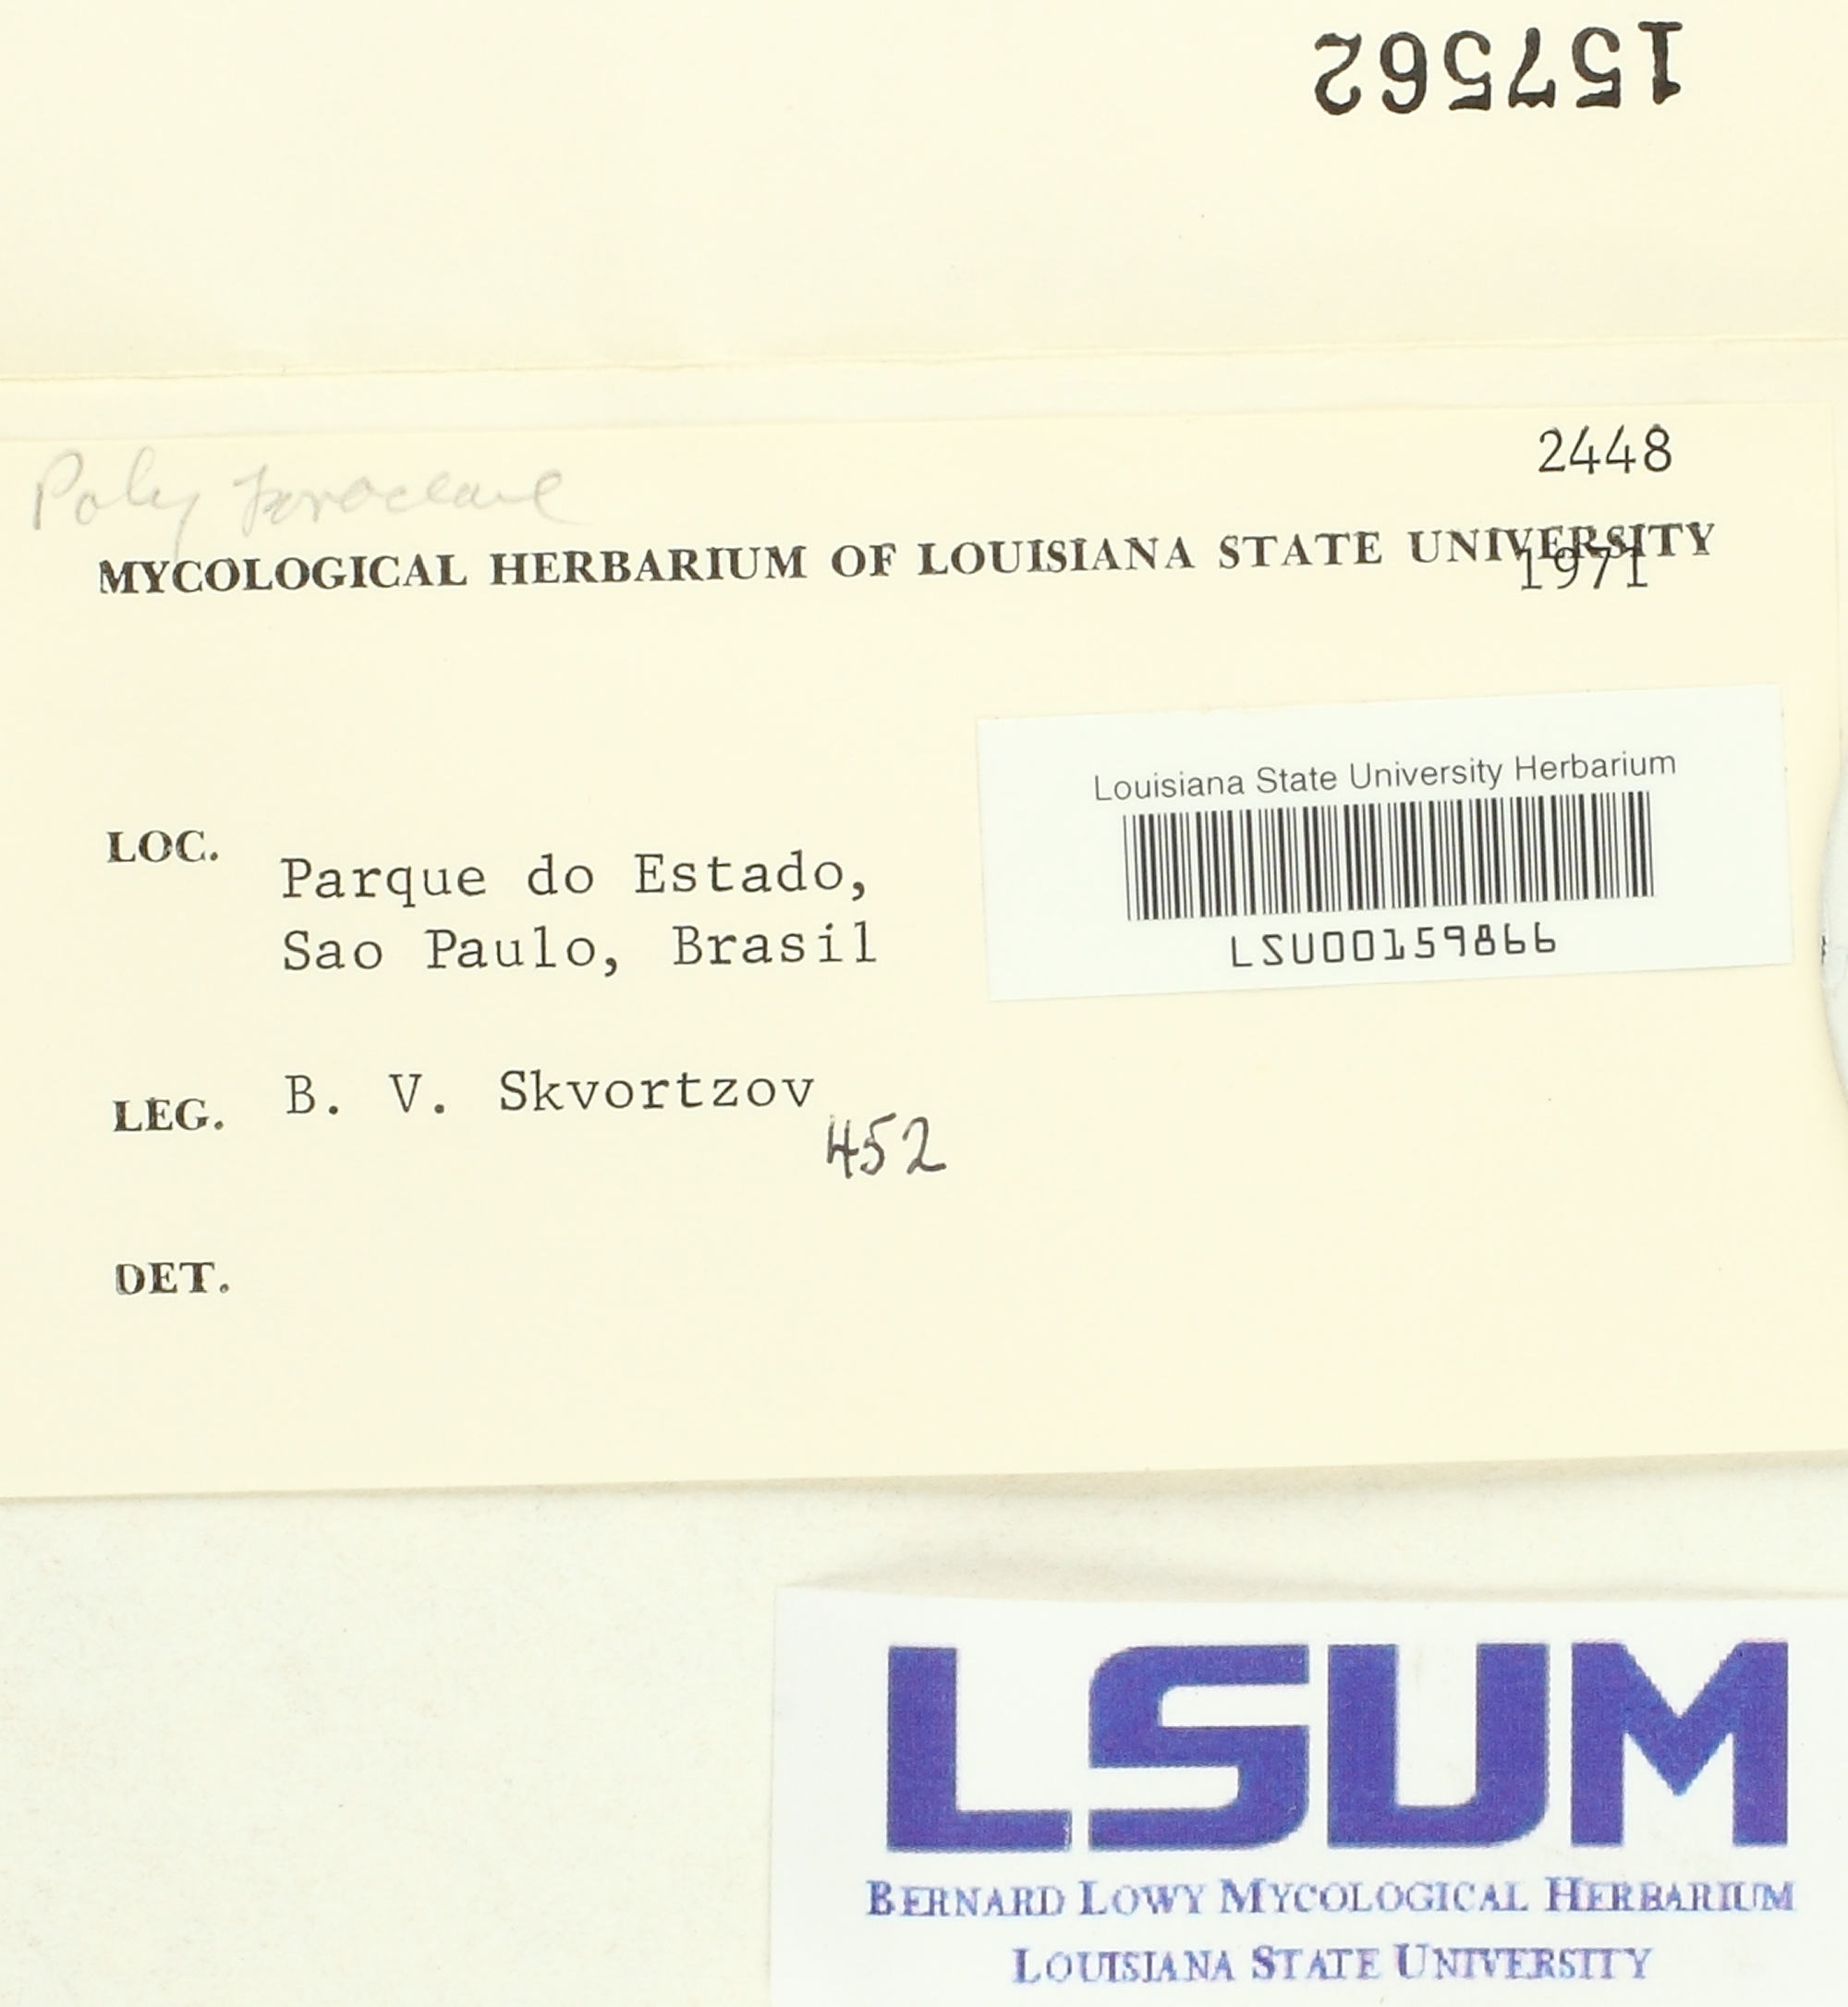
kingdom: Fungi
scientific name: Fungi
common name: Fungi
